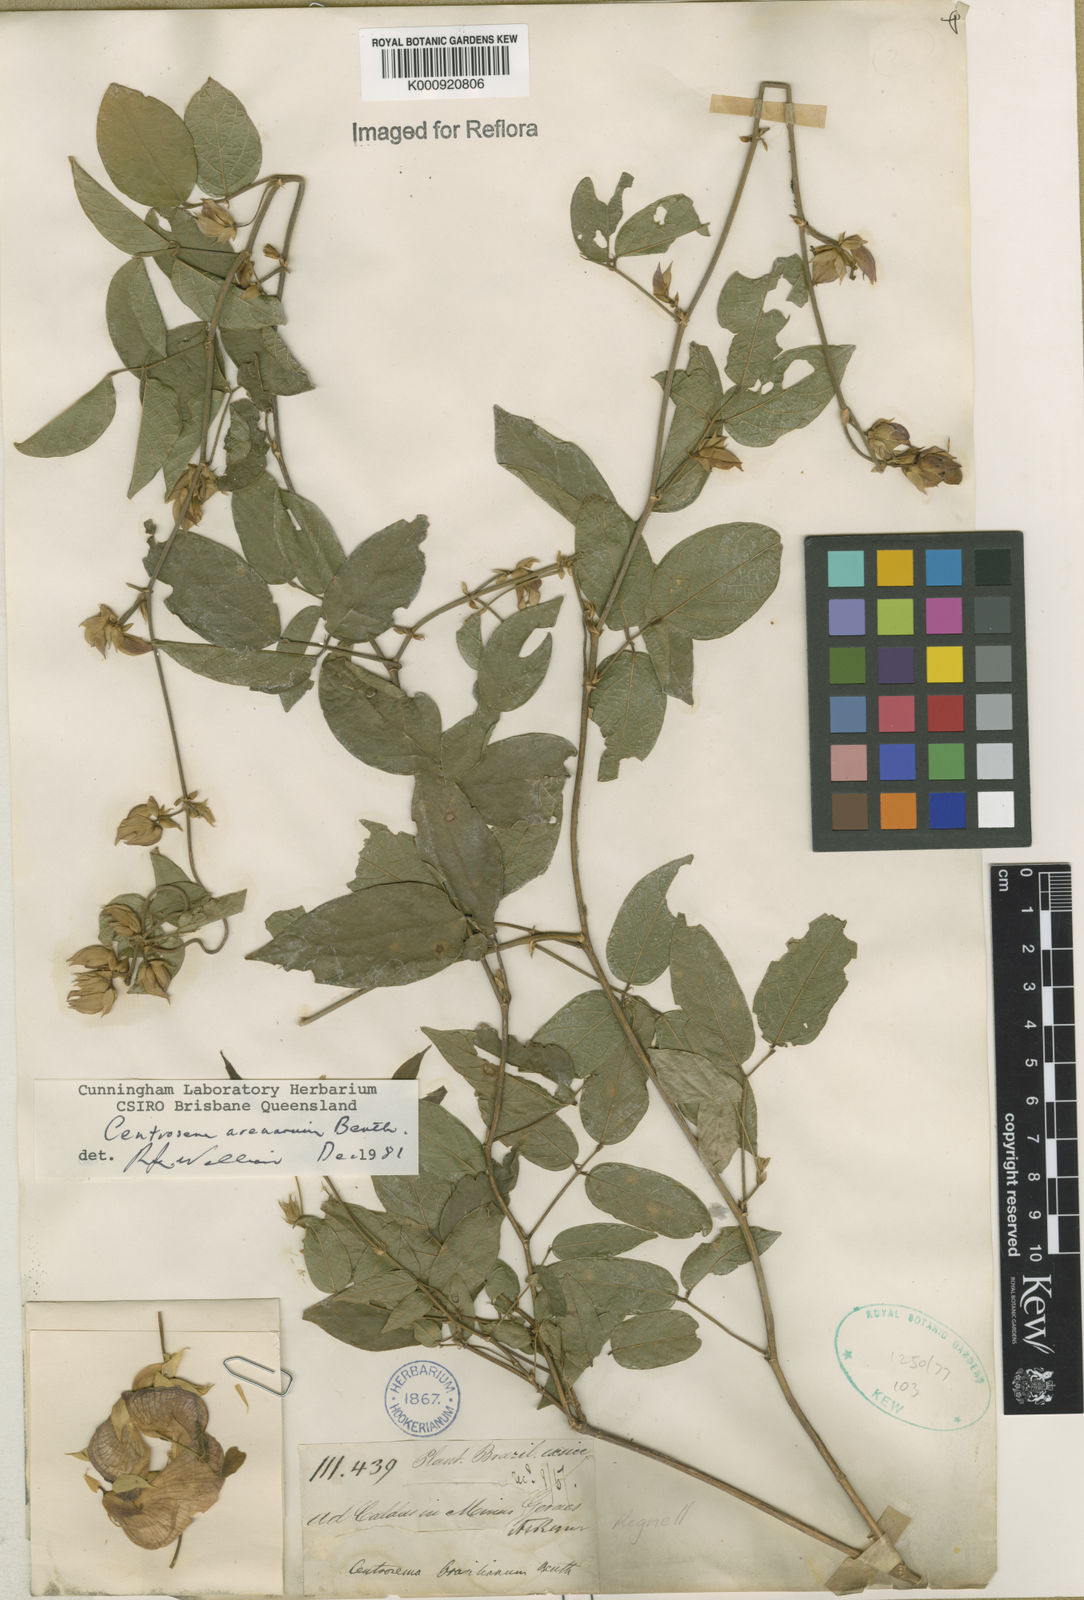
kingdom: Plantae
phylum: Tracheophyta
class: Magnoliopsida
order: Fabales
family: Fabaceae
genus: Centrosema
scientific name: Centrosema arenarium
